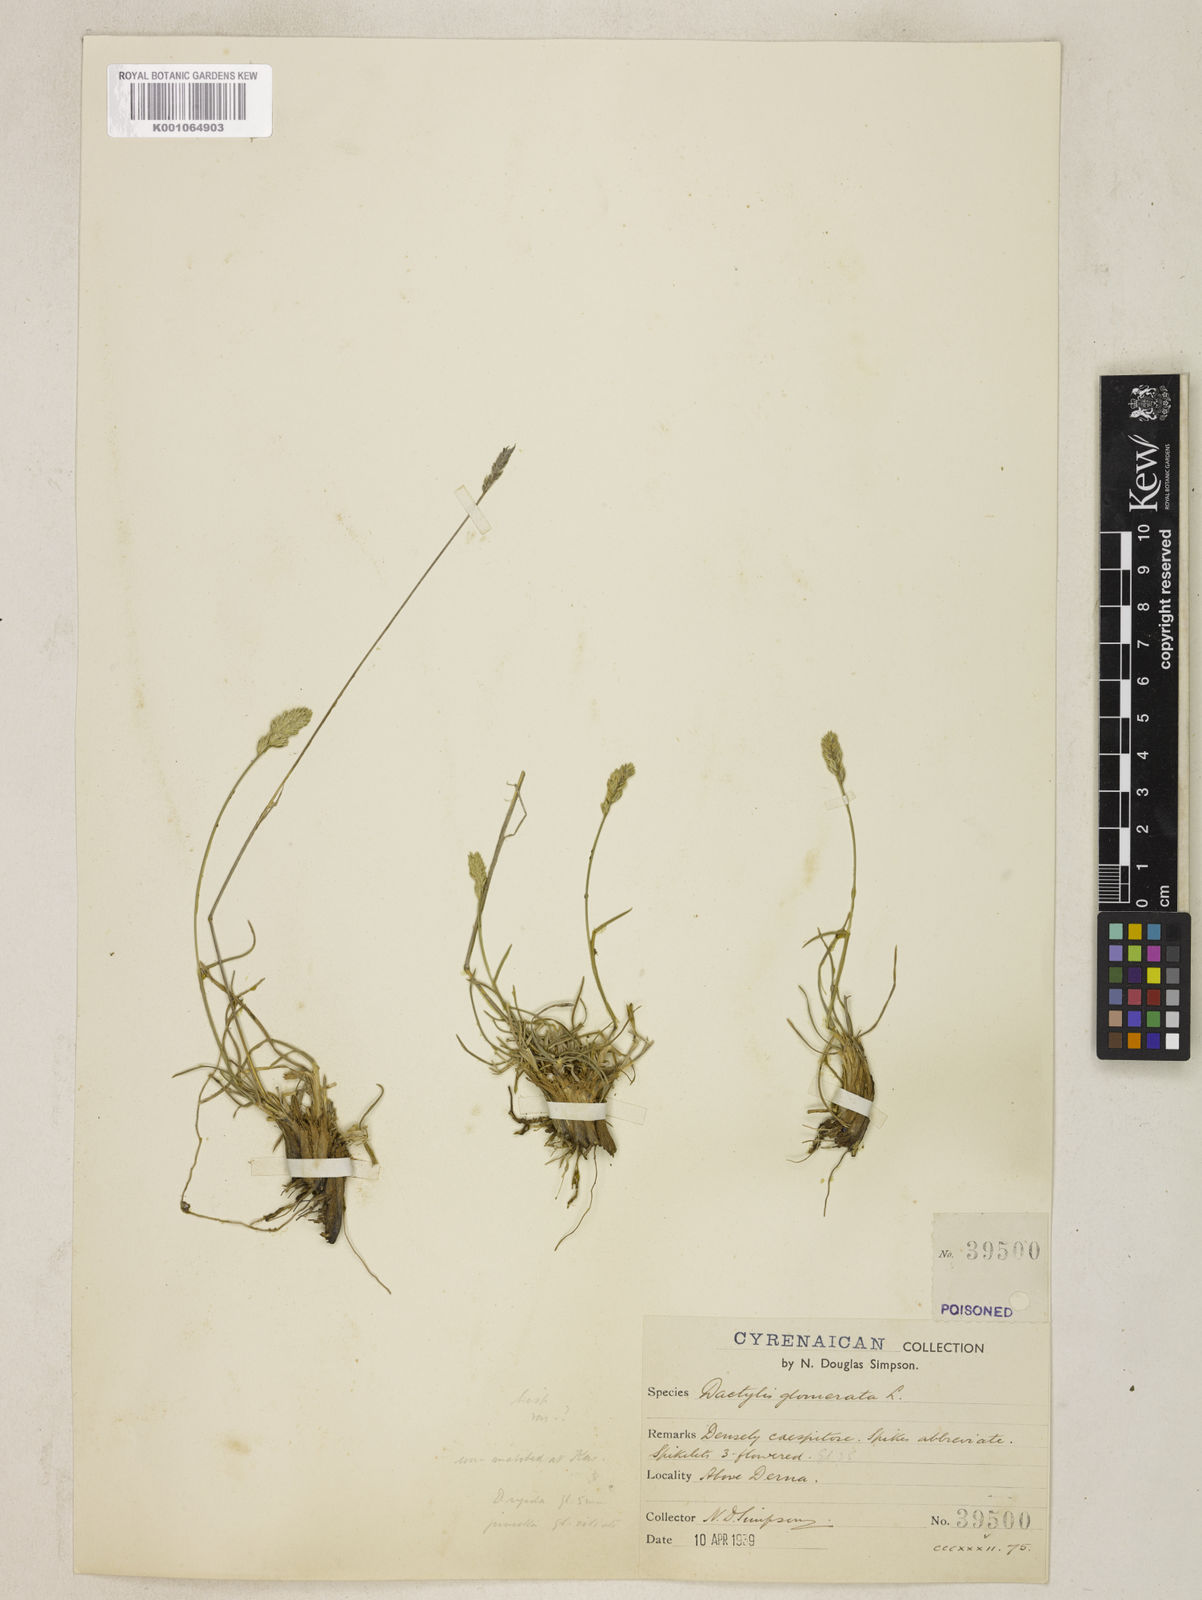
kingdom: Plantae
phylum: Tracheophyta
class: Liliopsida
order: Poales
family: Poaceae
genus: Dactylis
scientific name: Dactylis glomerata
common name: Orchardgrass
